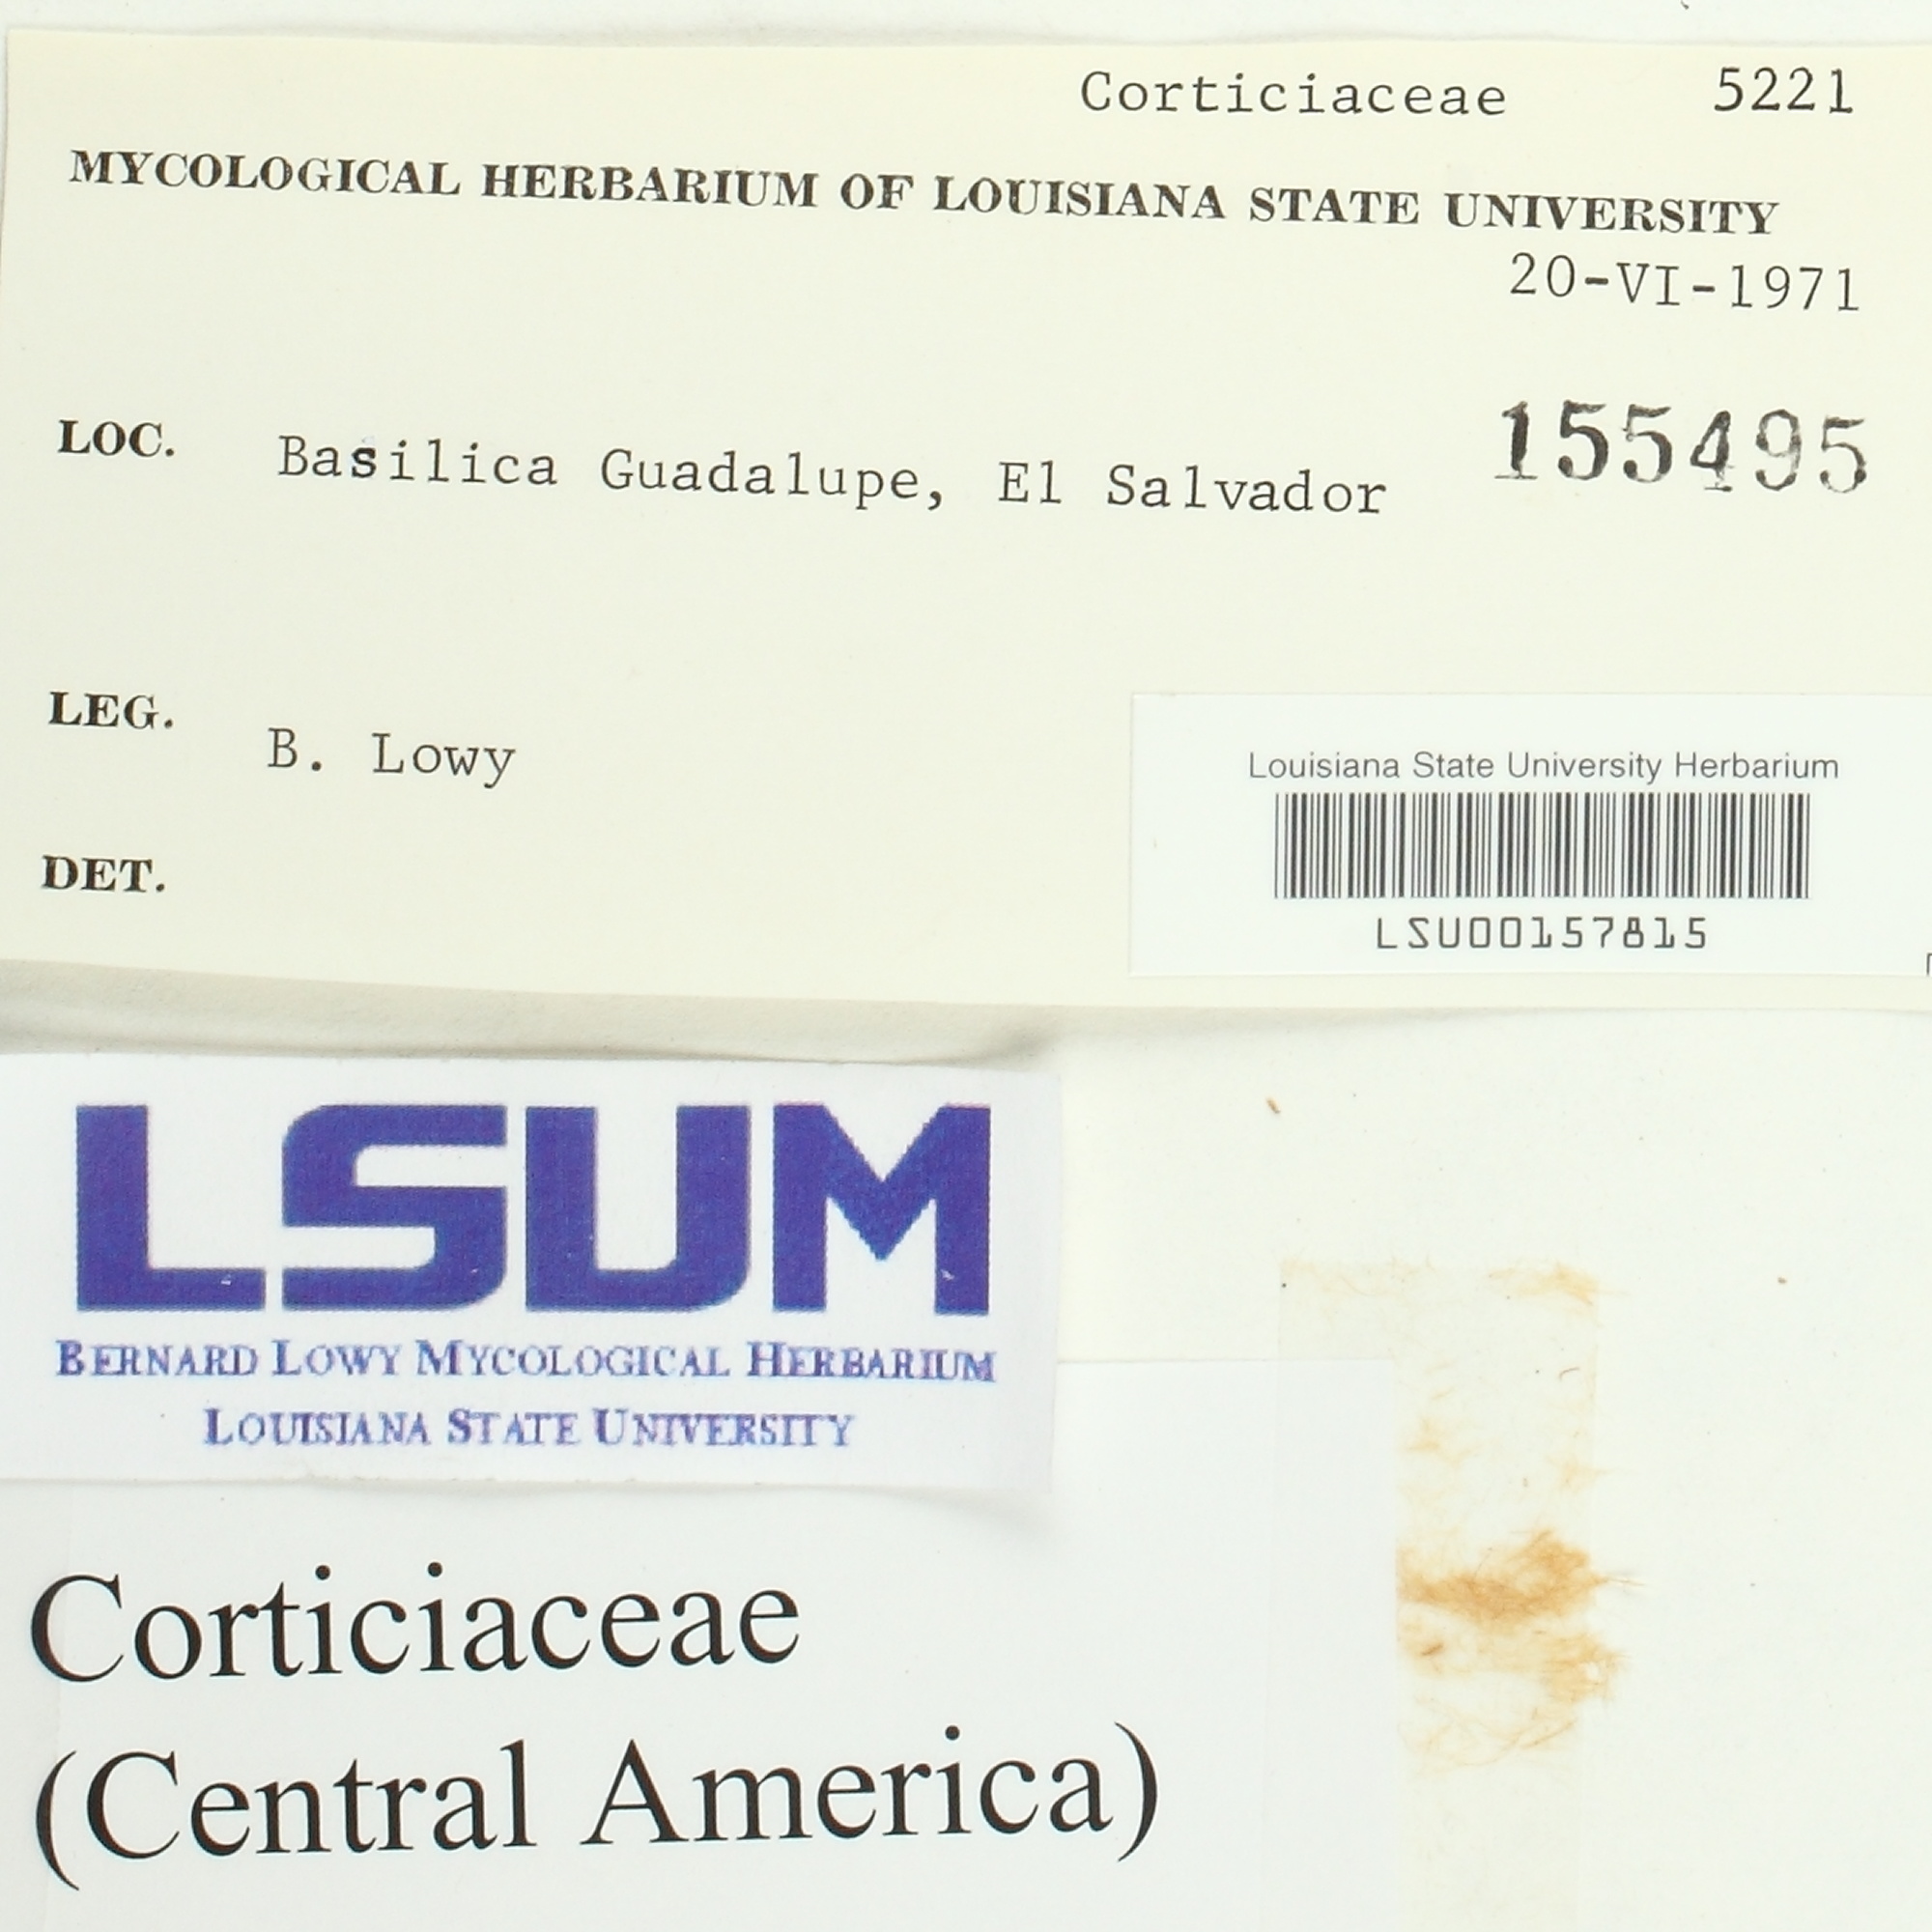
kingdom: Fungi
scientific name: Fungi
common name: Fungi
